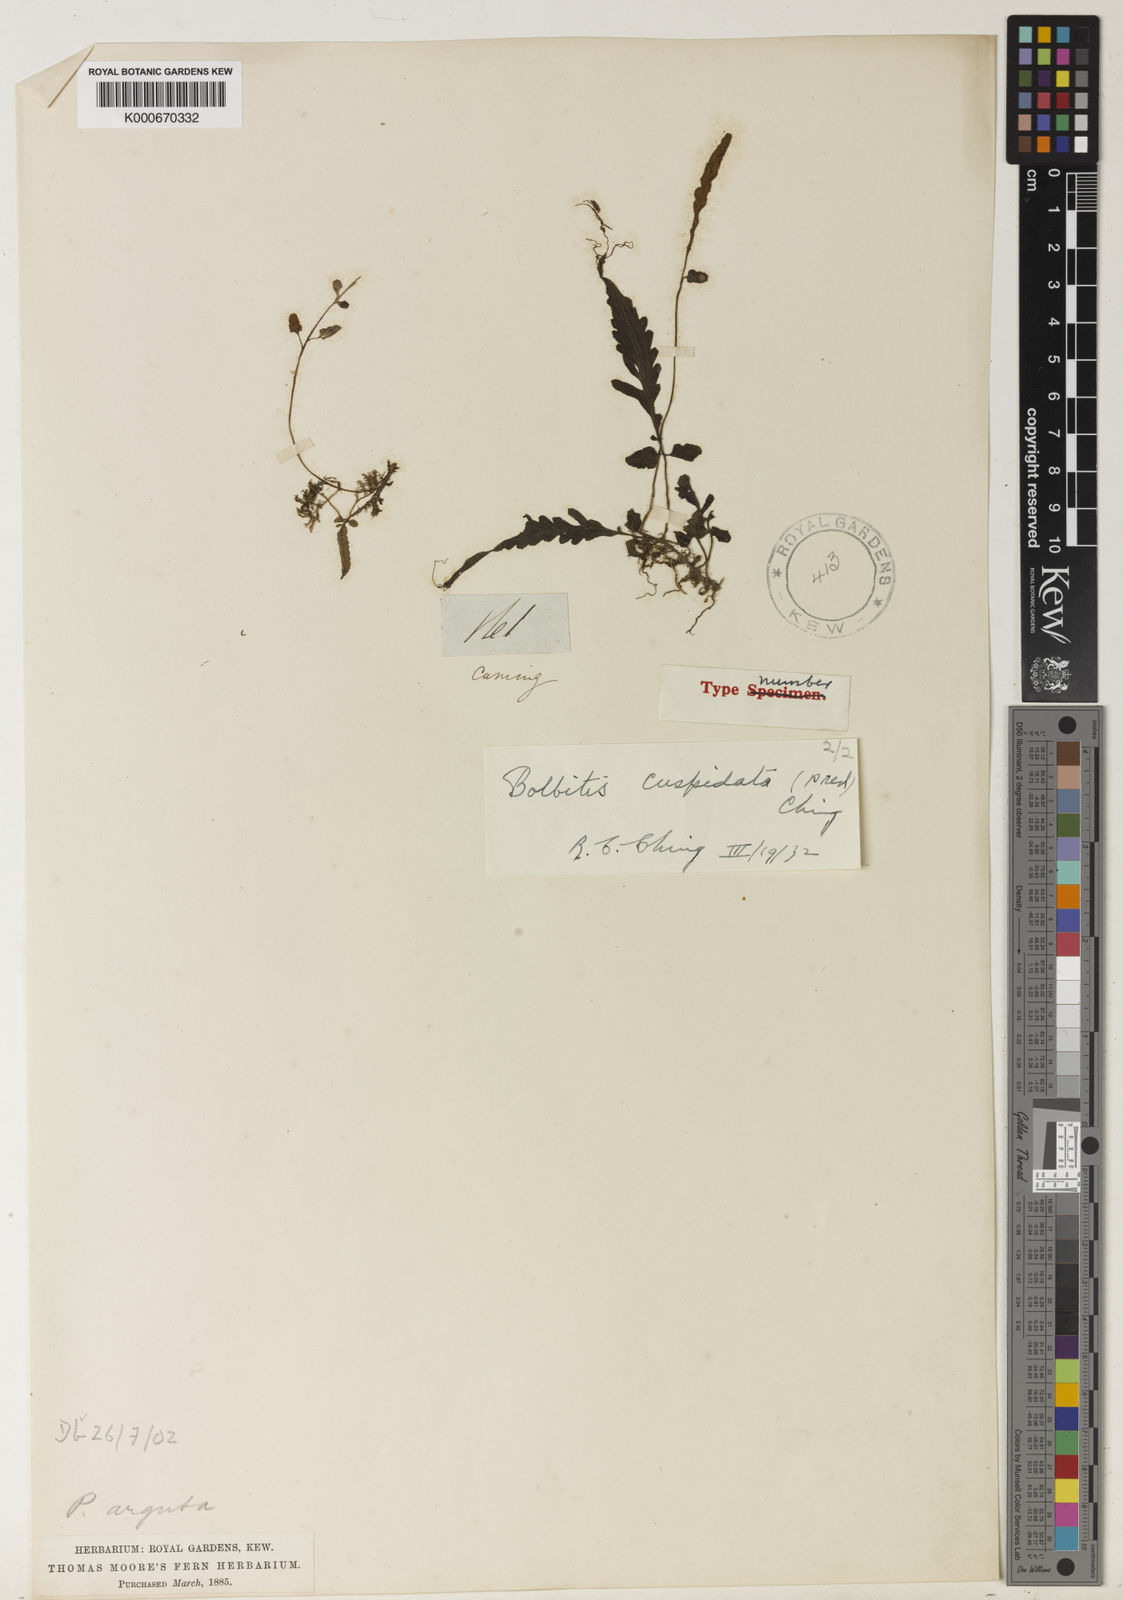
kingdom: Plantae
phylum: Tracheophyta
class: Polypodiopsida
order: Polypodiales
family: Dryopteridaceae
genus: Bolbitis
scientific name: Bolbitis heteroclita
